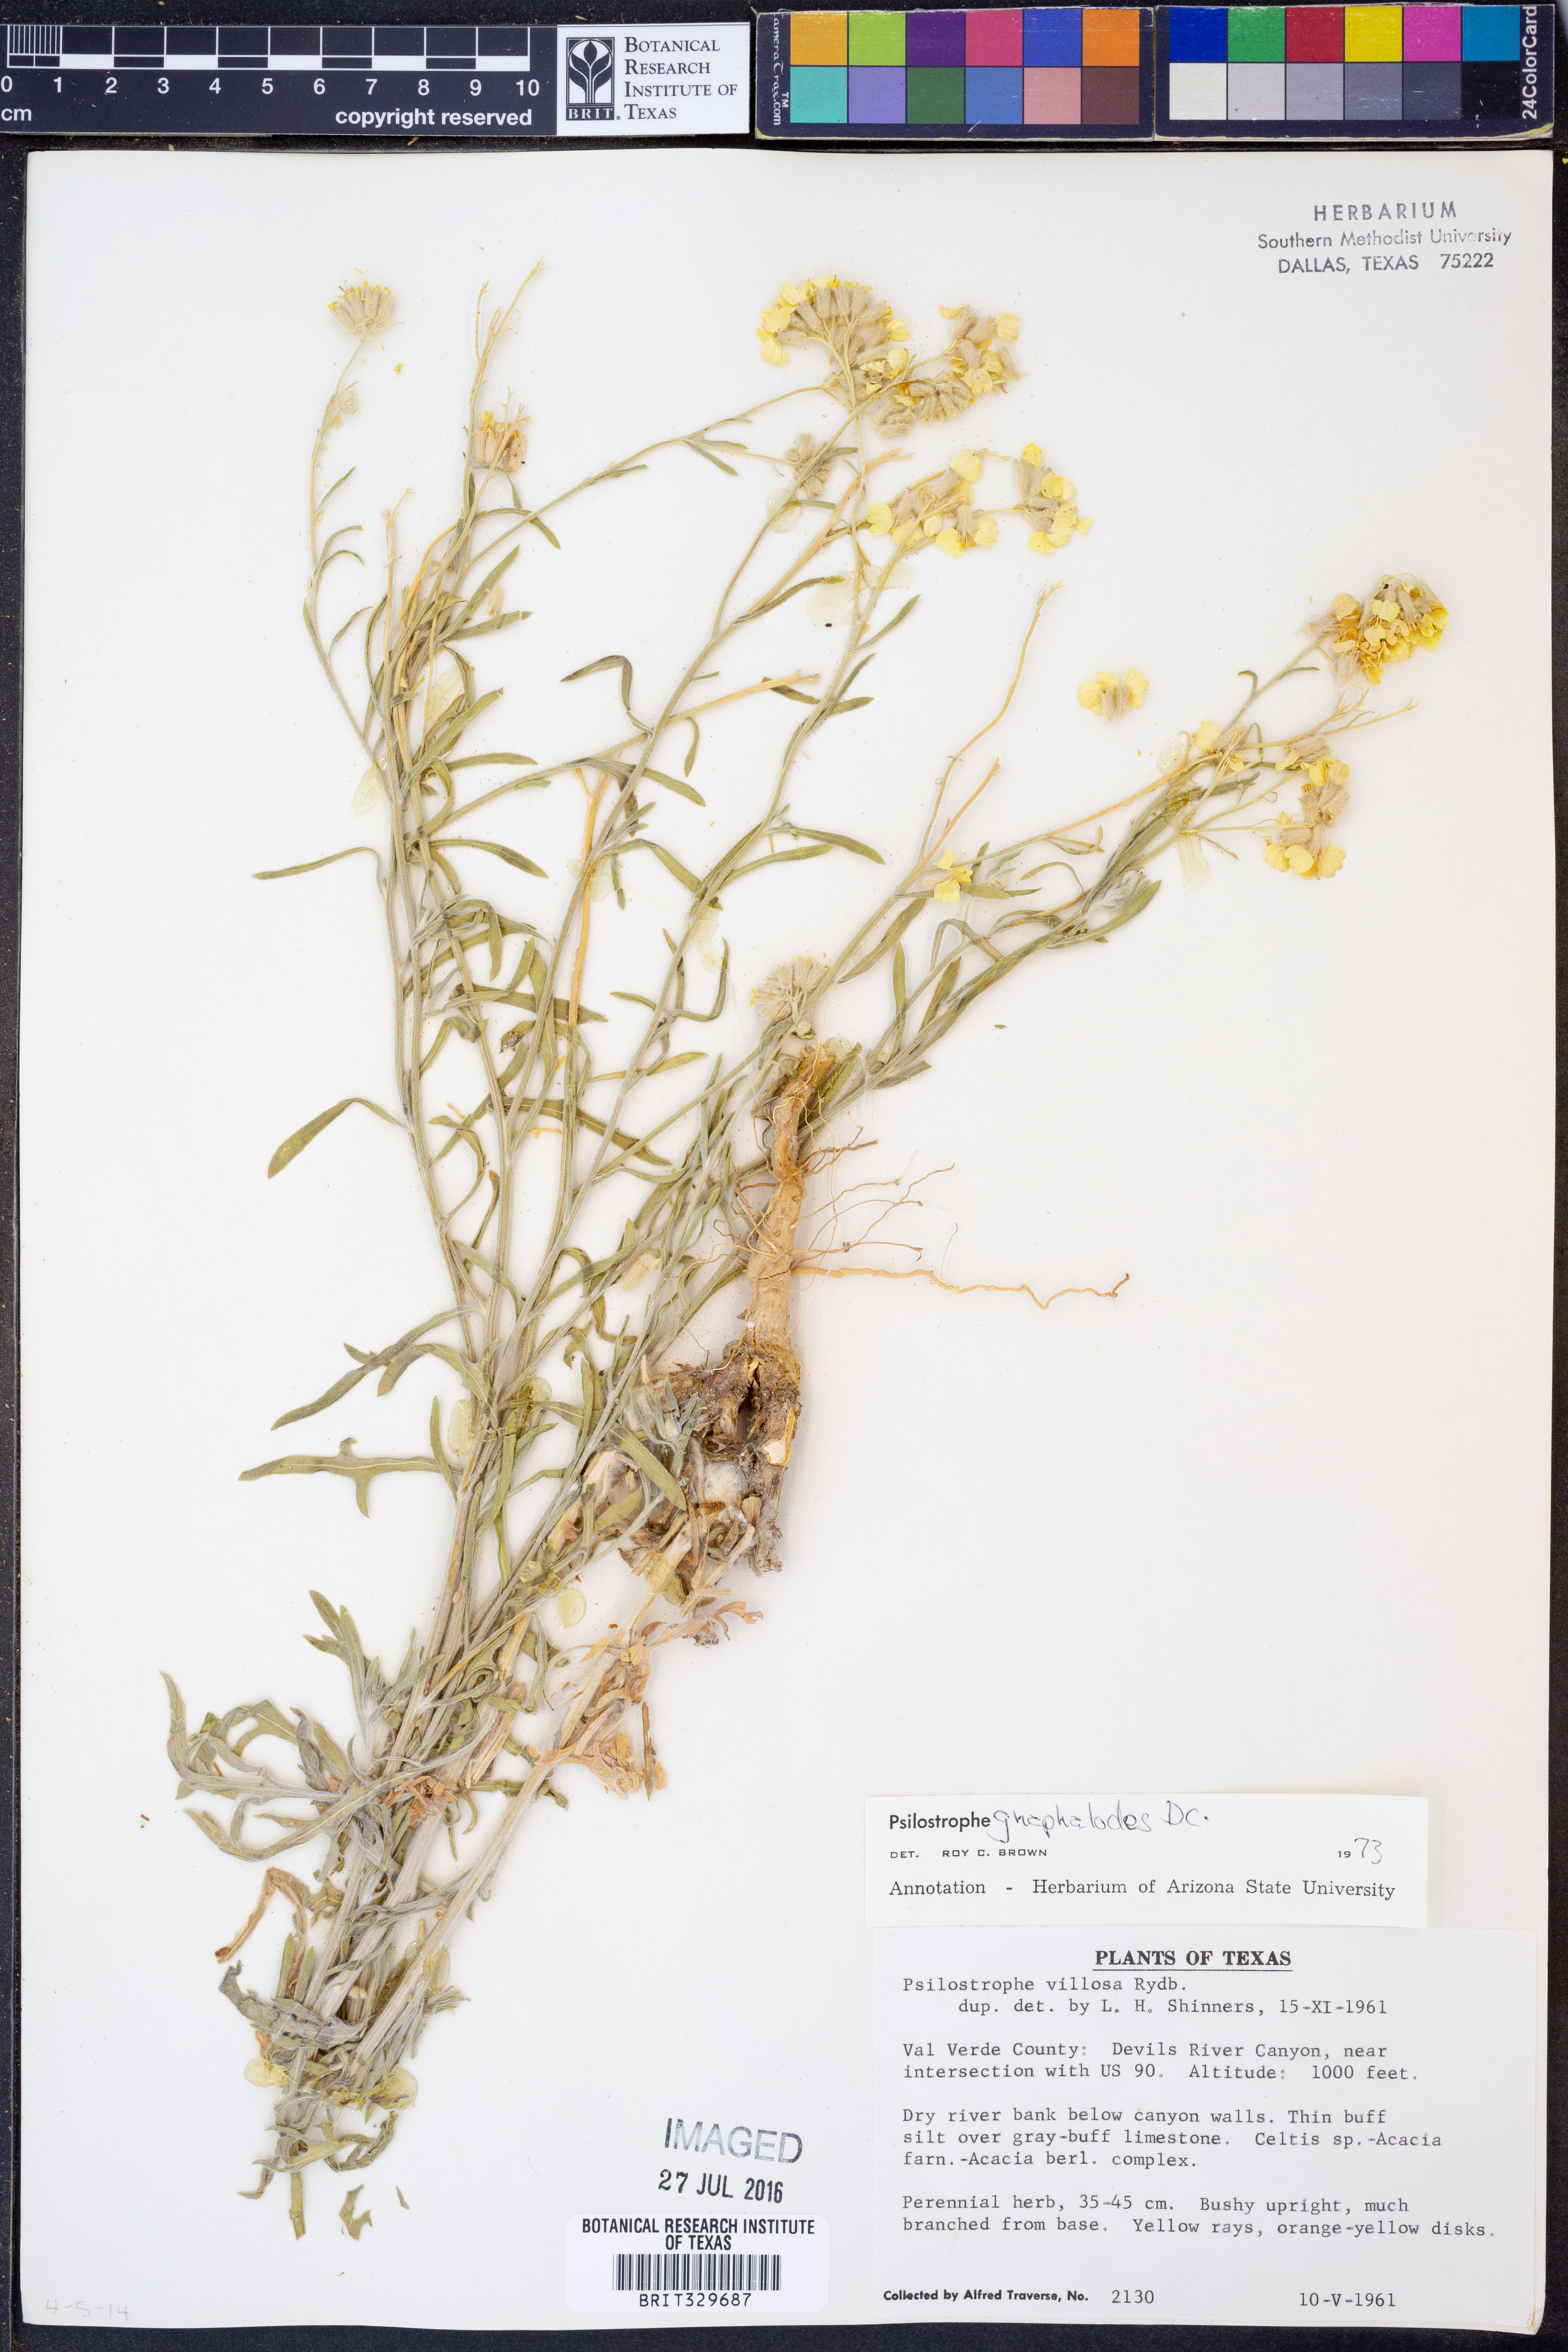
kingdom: Plantae
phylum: Tracheophyta
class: Magnoliopsida
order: Asterales
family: Asteraceae
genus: Psilostrophe
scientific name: Psilostrophe gnaphalioides
